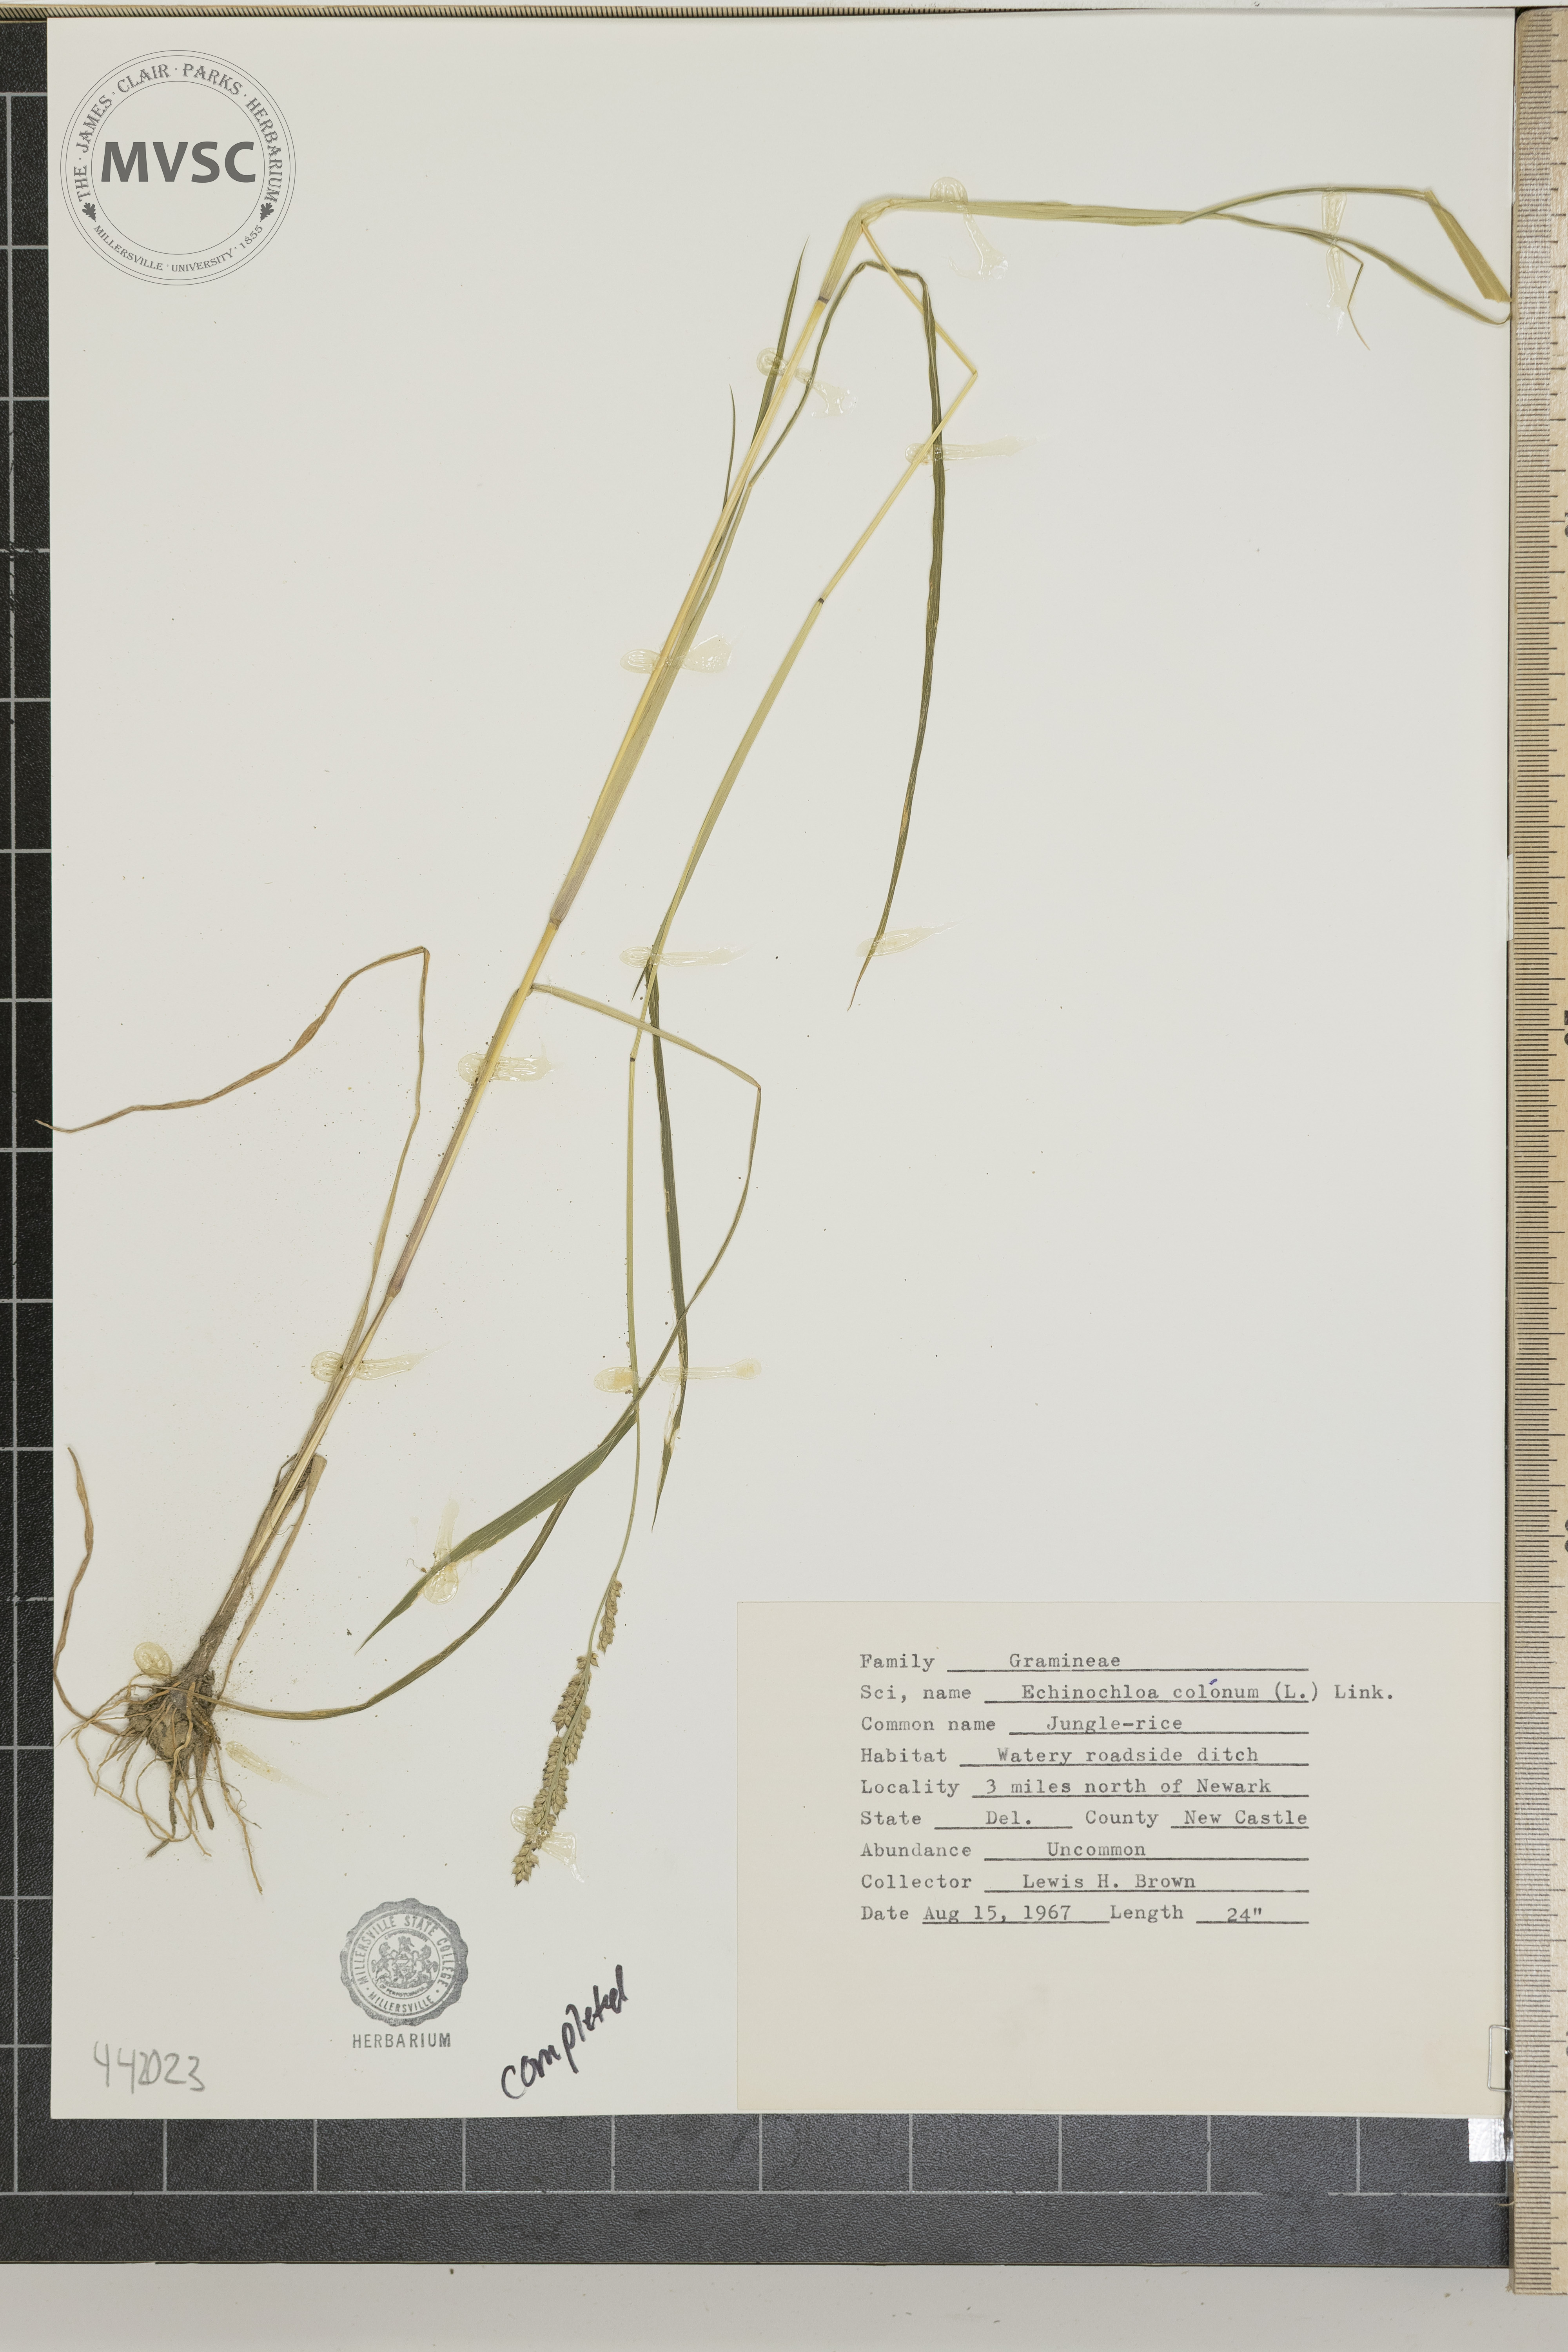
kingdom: Plantae
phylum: Tracheophyta
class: Liliopsida
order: Poales
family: Poaceae
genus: Echinochloa
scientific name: Echinochloa colonum
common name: Jungle-rice
